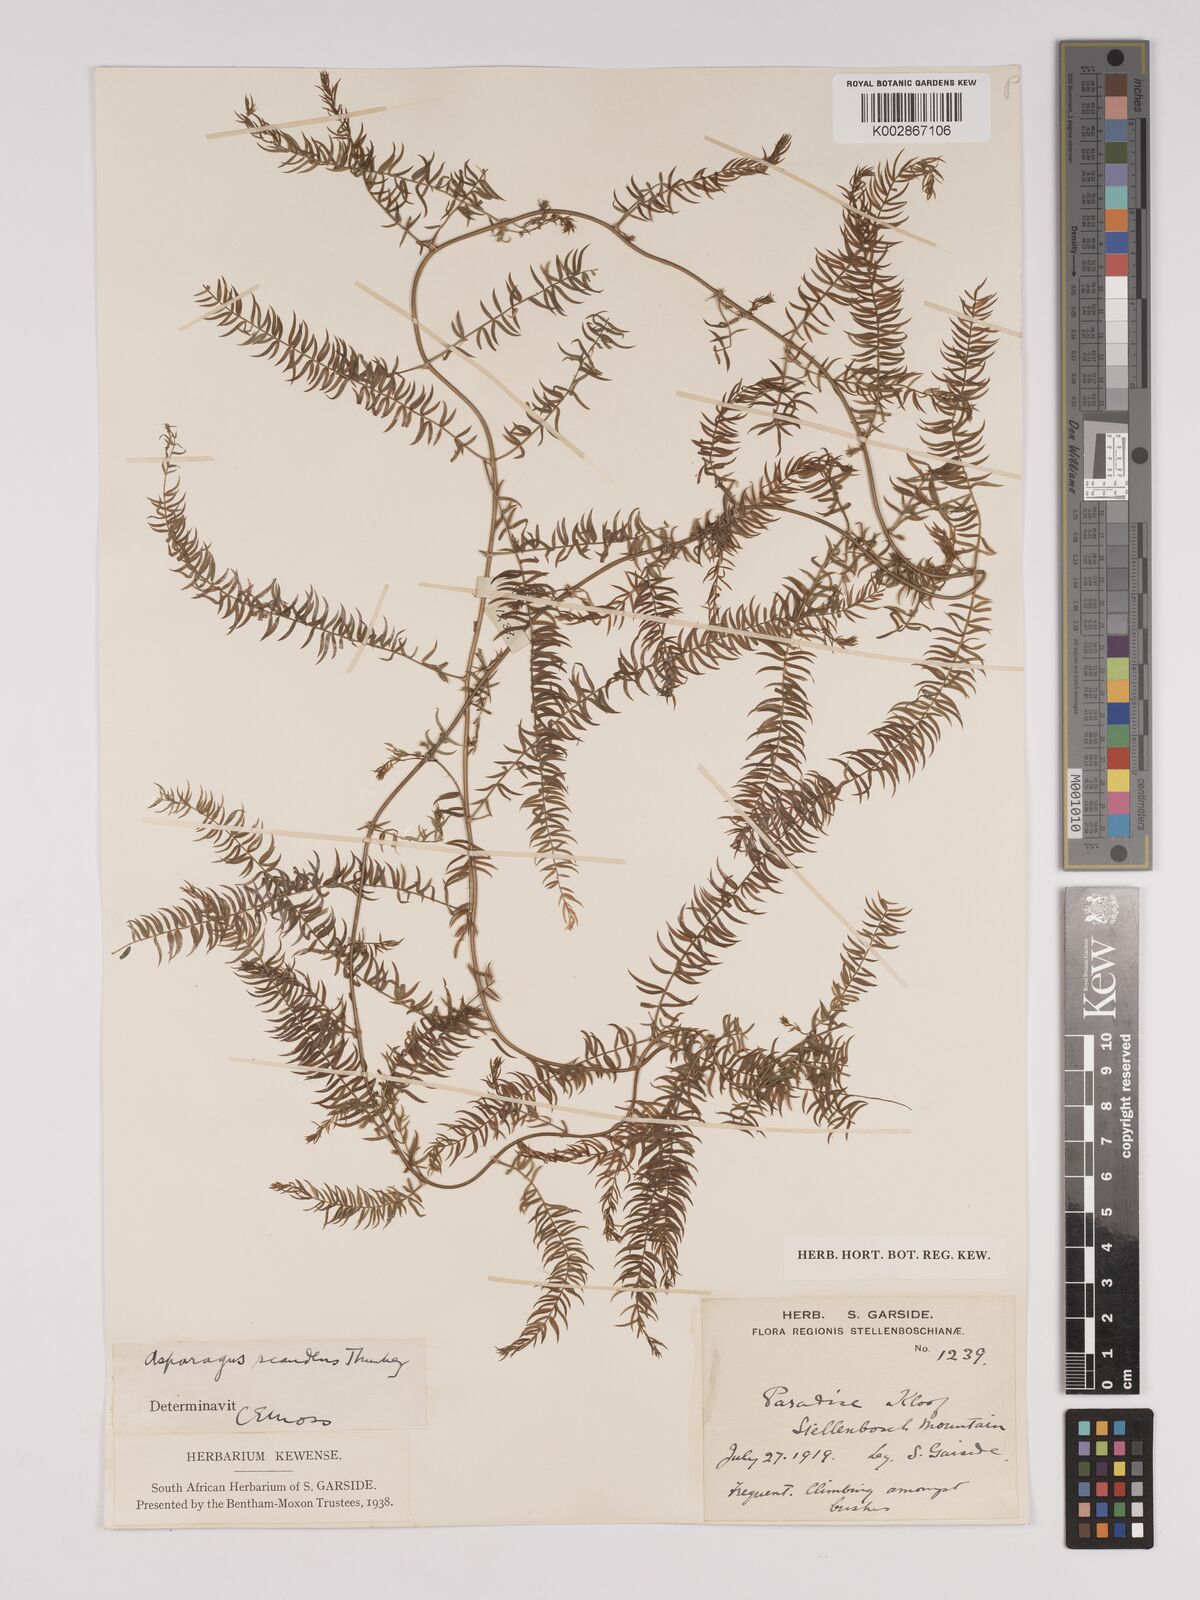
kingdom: Plantae
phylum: Tracheophyta
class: Liliopsida
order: Asparagales
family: Asparagaceae
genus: Asparagus
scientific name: Asparagus scandens
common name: Asparagus-fern
